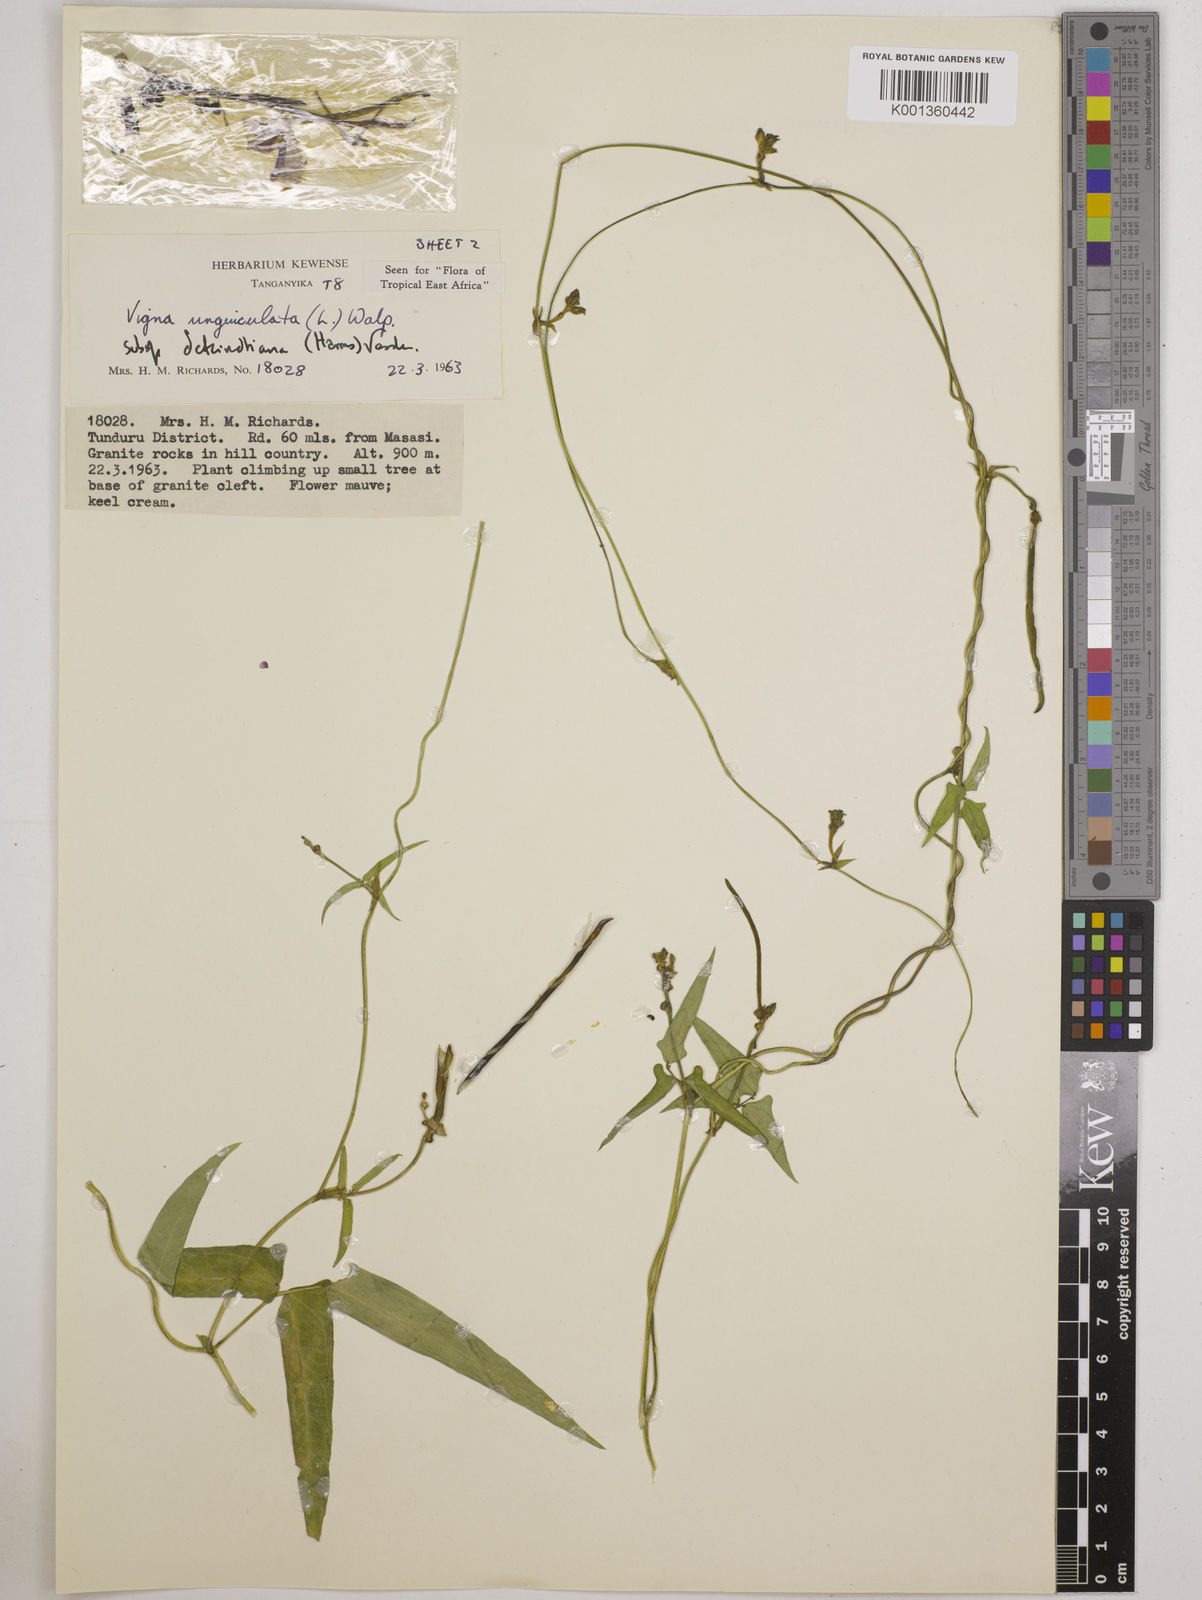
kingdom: Plantae
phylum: Tracheophyta
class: Magnoliopsida
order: Fabales
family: Fabaceae
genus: Vigna
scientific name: Vigna
